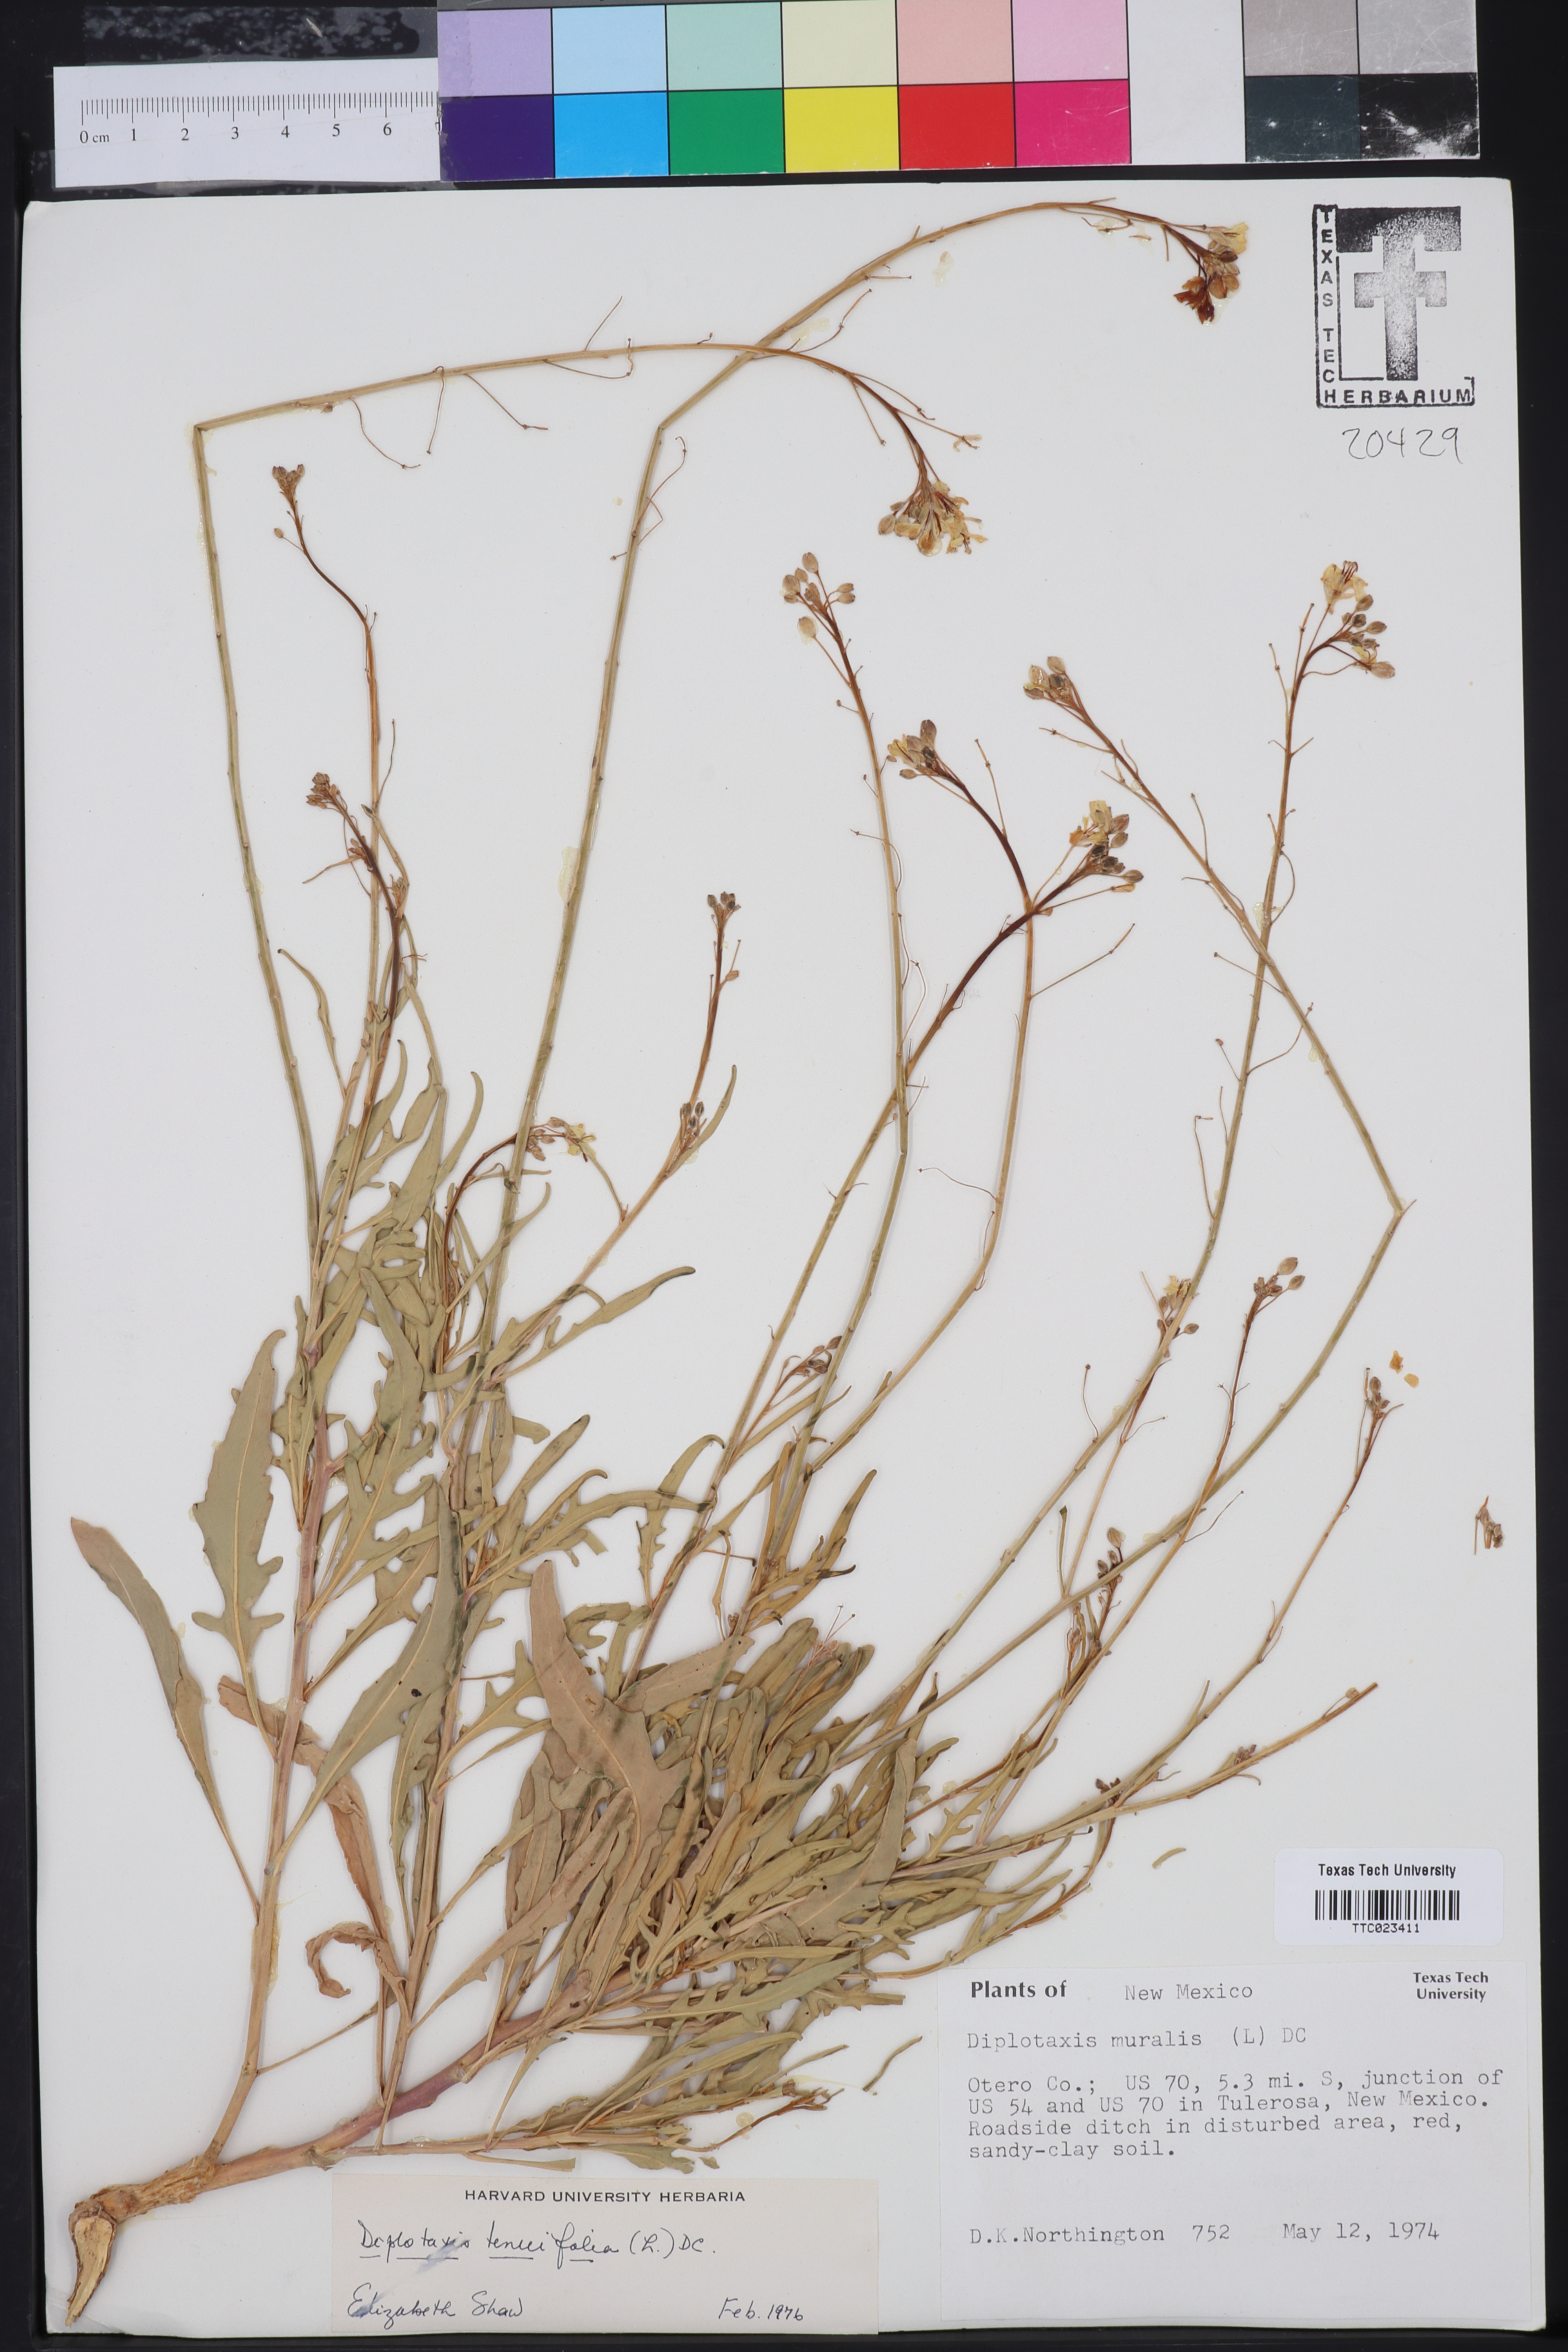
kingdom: Plantae
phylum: Tracheophyta
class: Magnoliopsida
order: Brassicales
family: Brassicaceae
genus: Diplotaxis
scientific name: Diplotaxis muralis
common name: Annual wall-rocket
